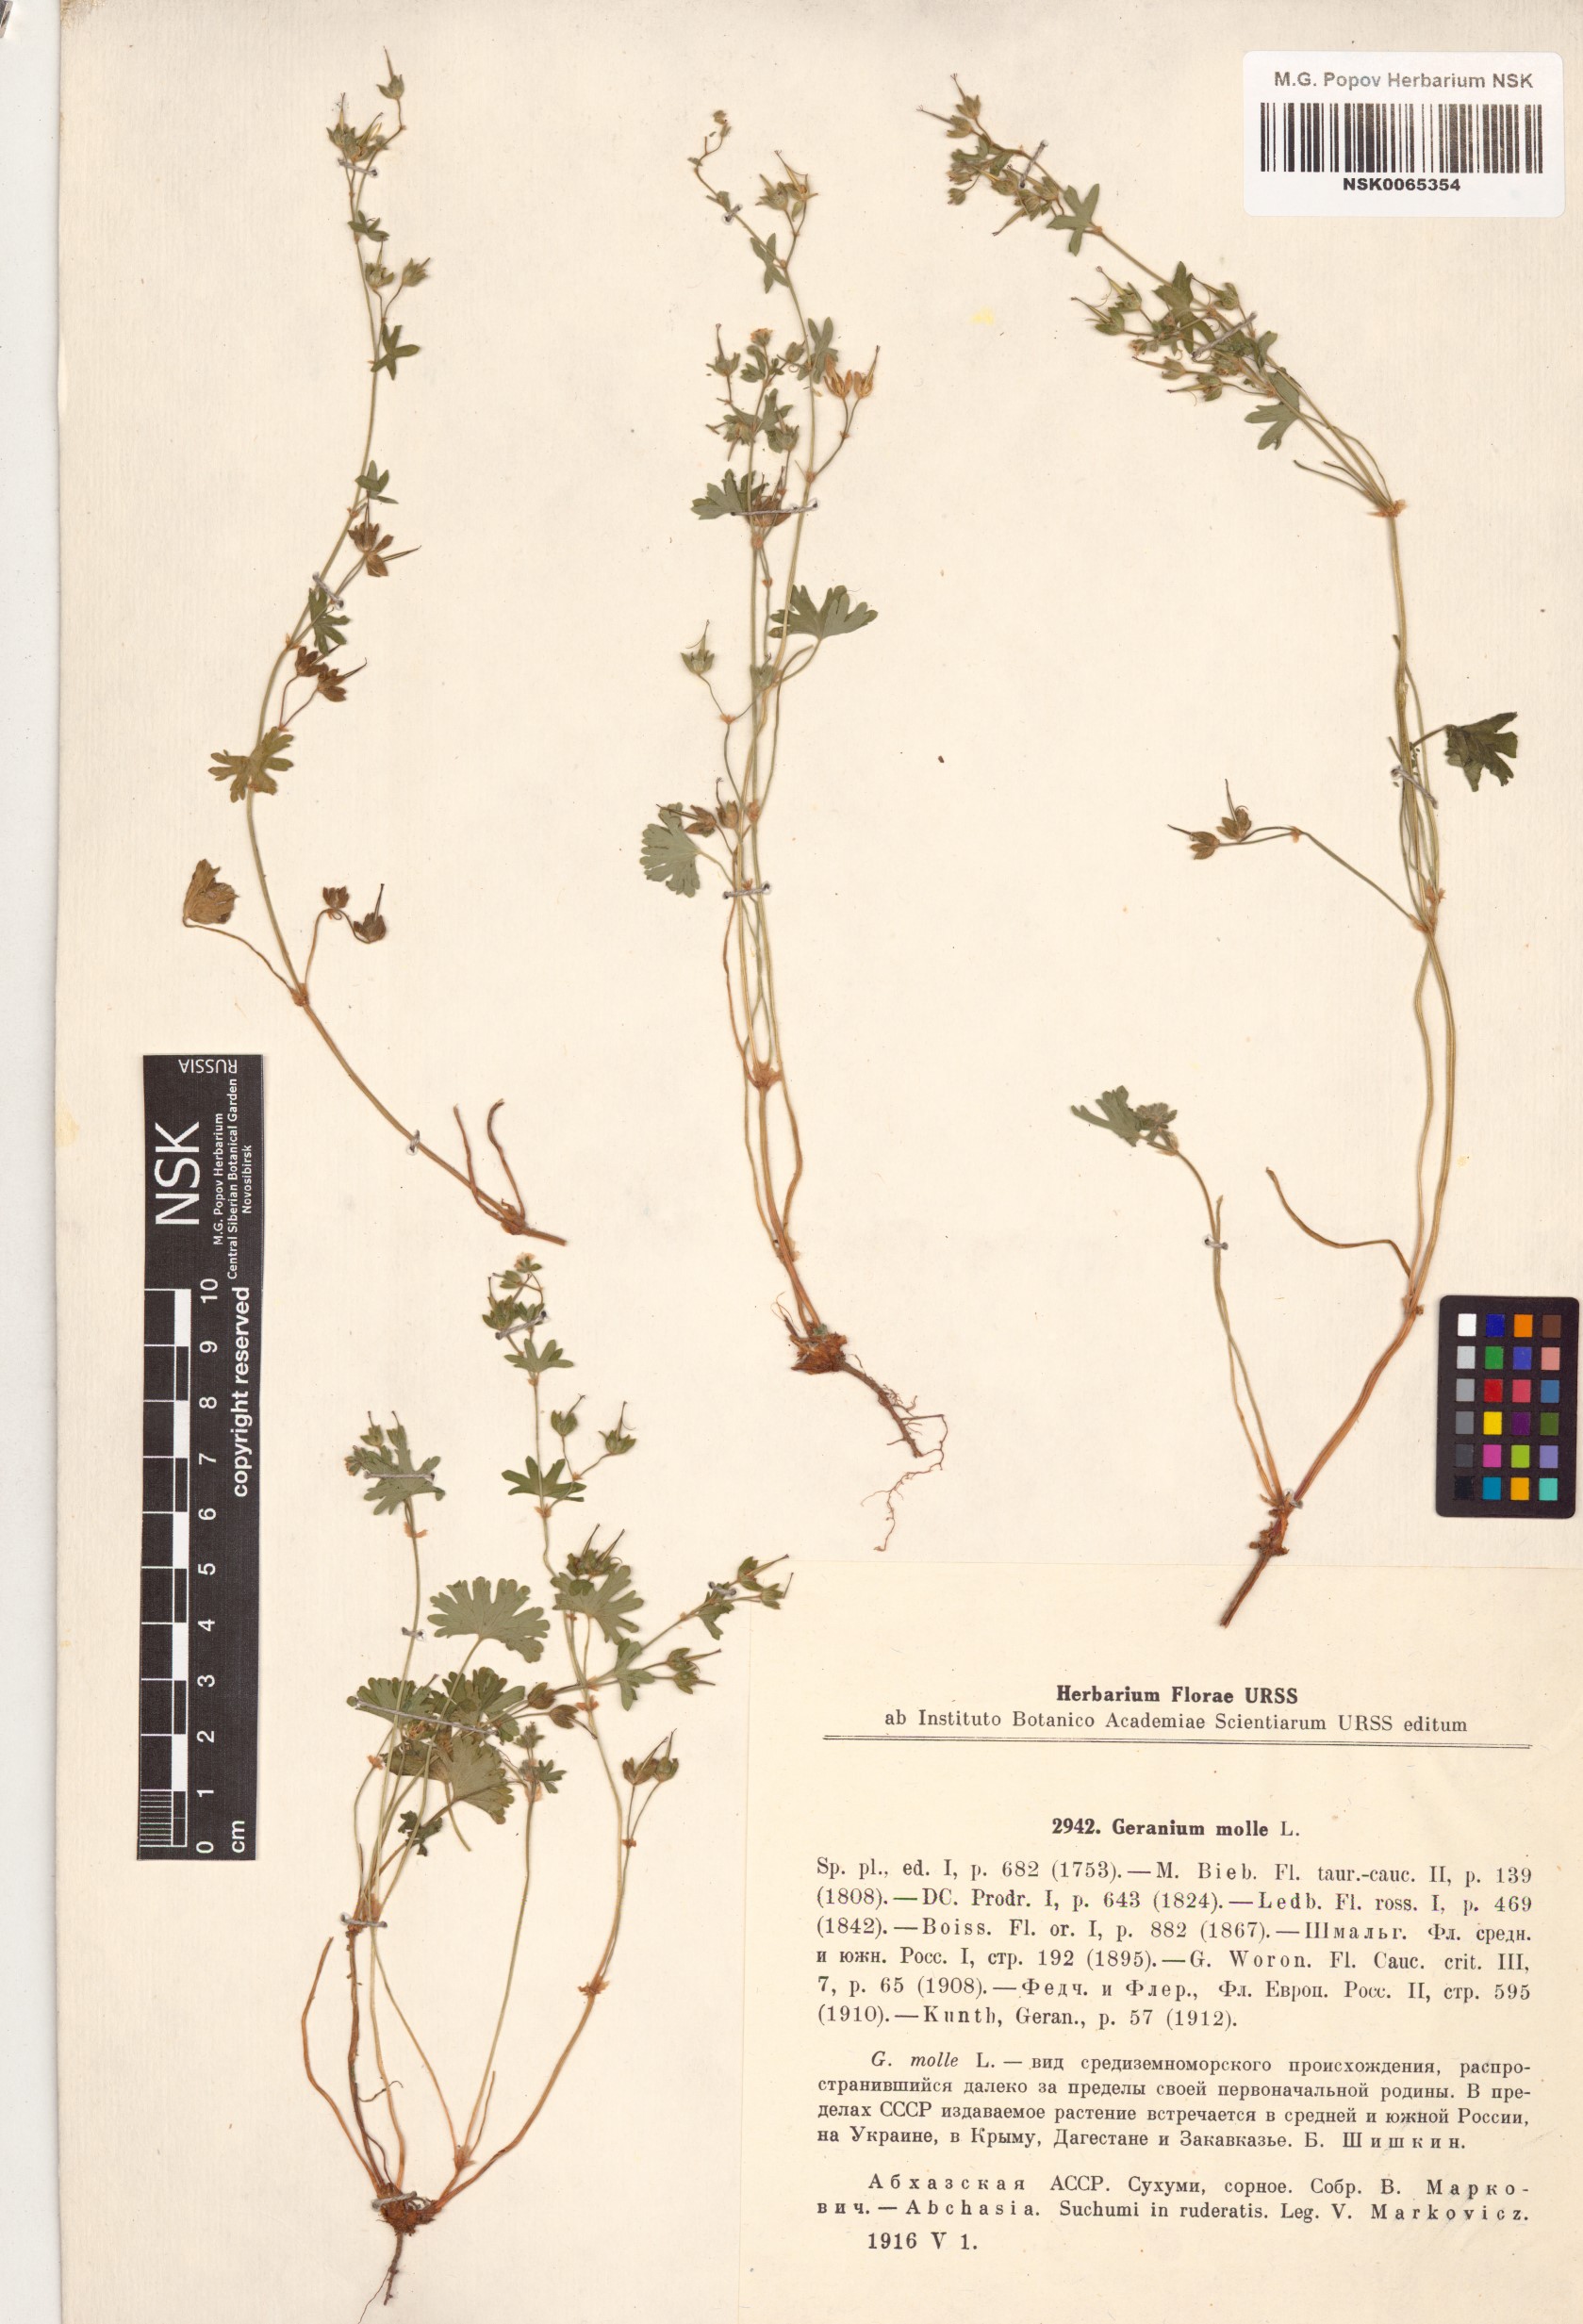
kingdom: Plantae
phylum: Tracheophyta
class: Magnoliopsida
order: Geraniales
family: Geraniaceae
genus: Geranium
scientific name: Geranium molle
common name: Dove's-foot crane's-bill
